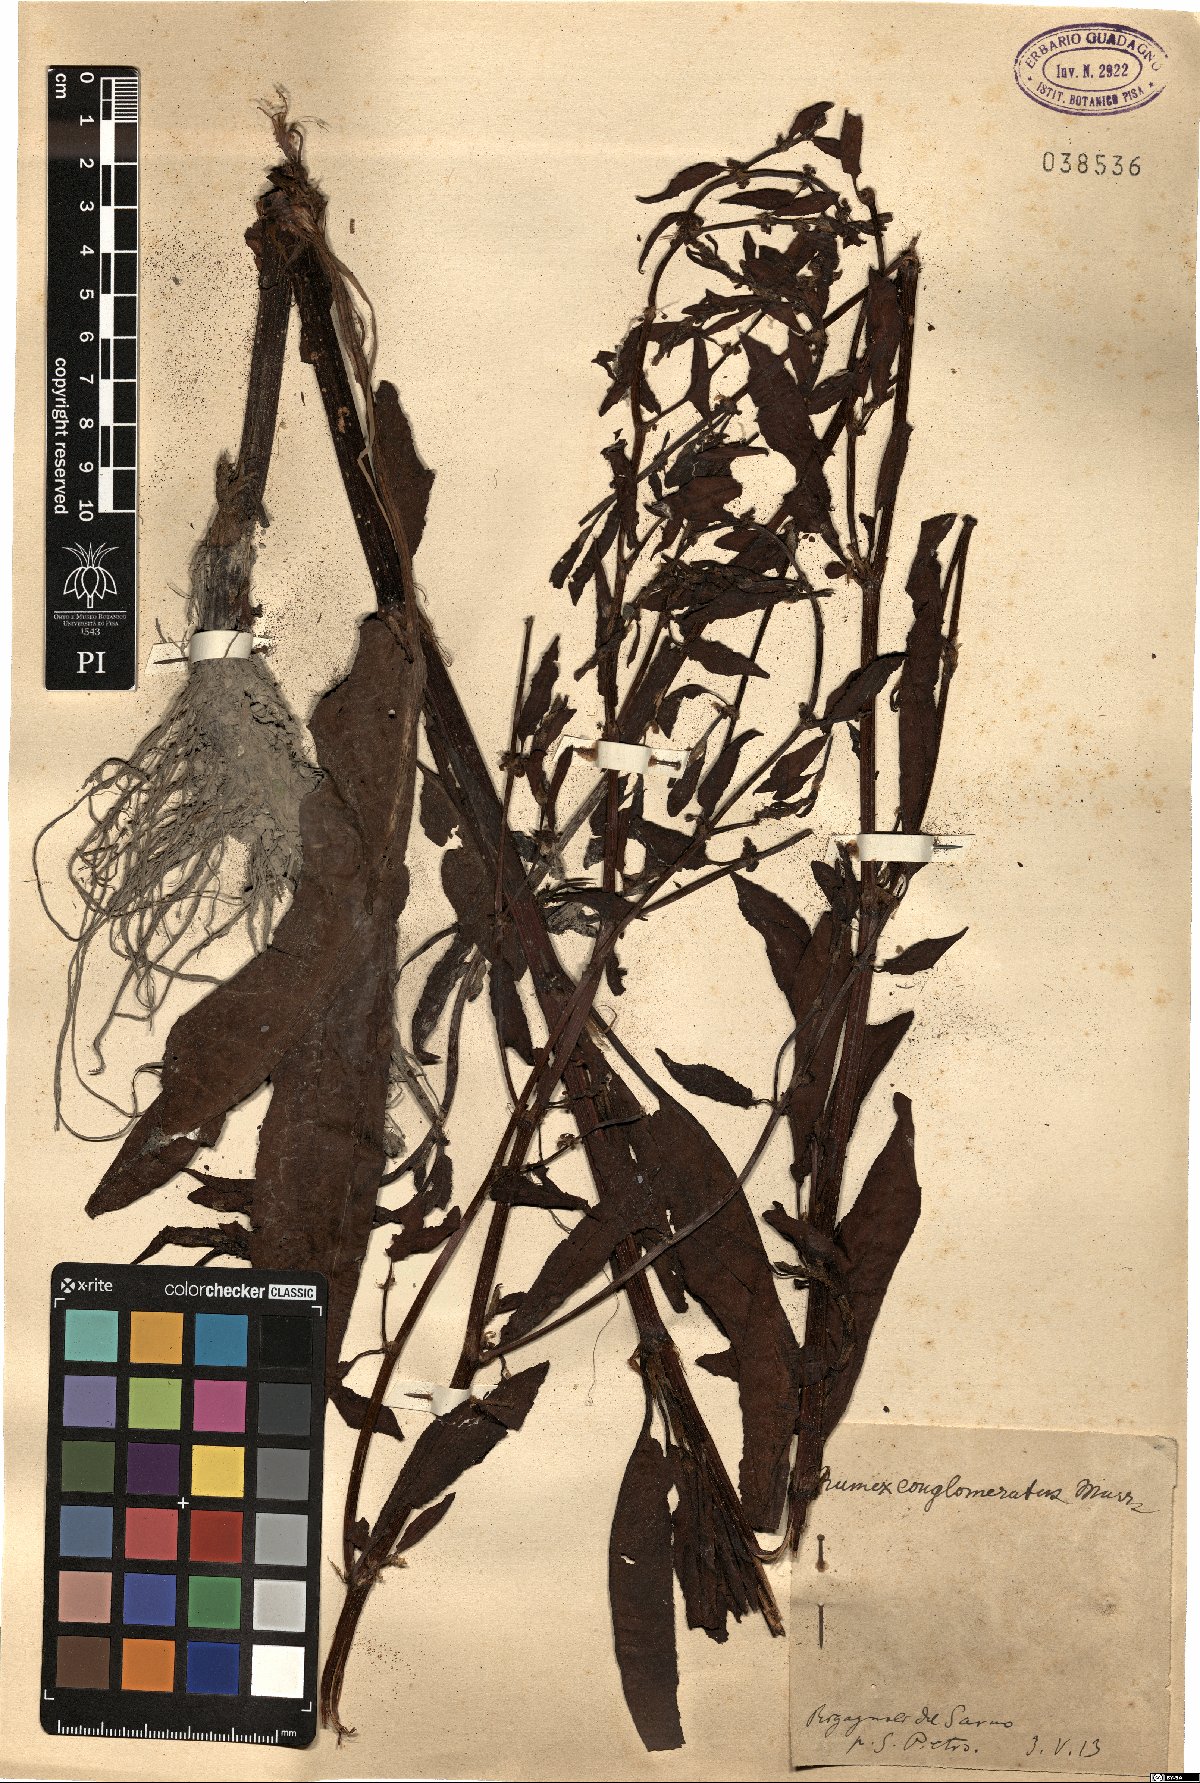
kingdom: Plantae
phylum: Tracheophyta
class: Magnoliopsida
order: Caryophyllales
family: Polygonaceae
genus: Rumex
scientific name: Rumex conglomeratus
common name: Clustered dock
